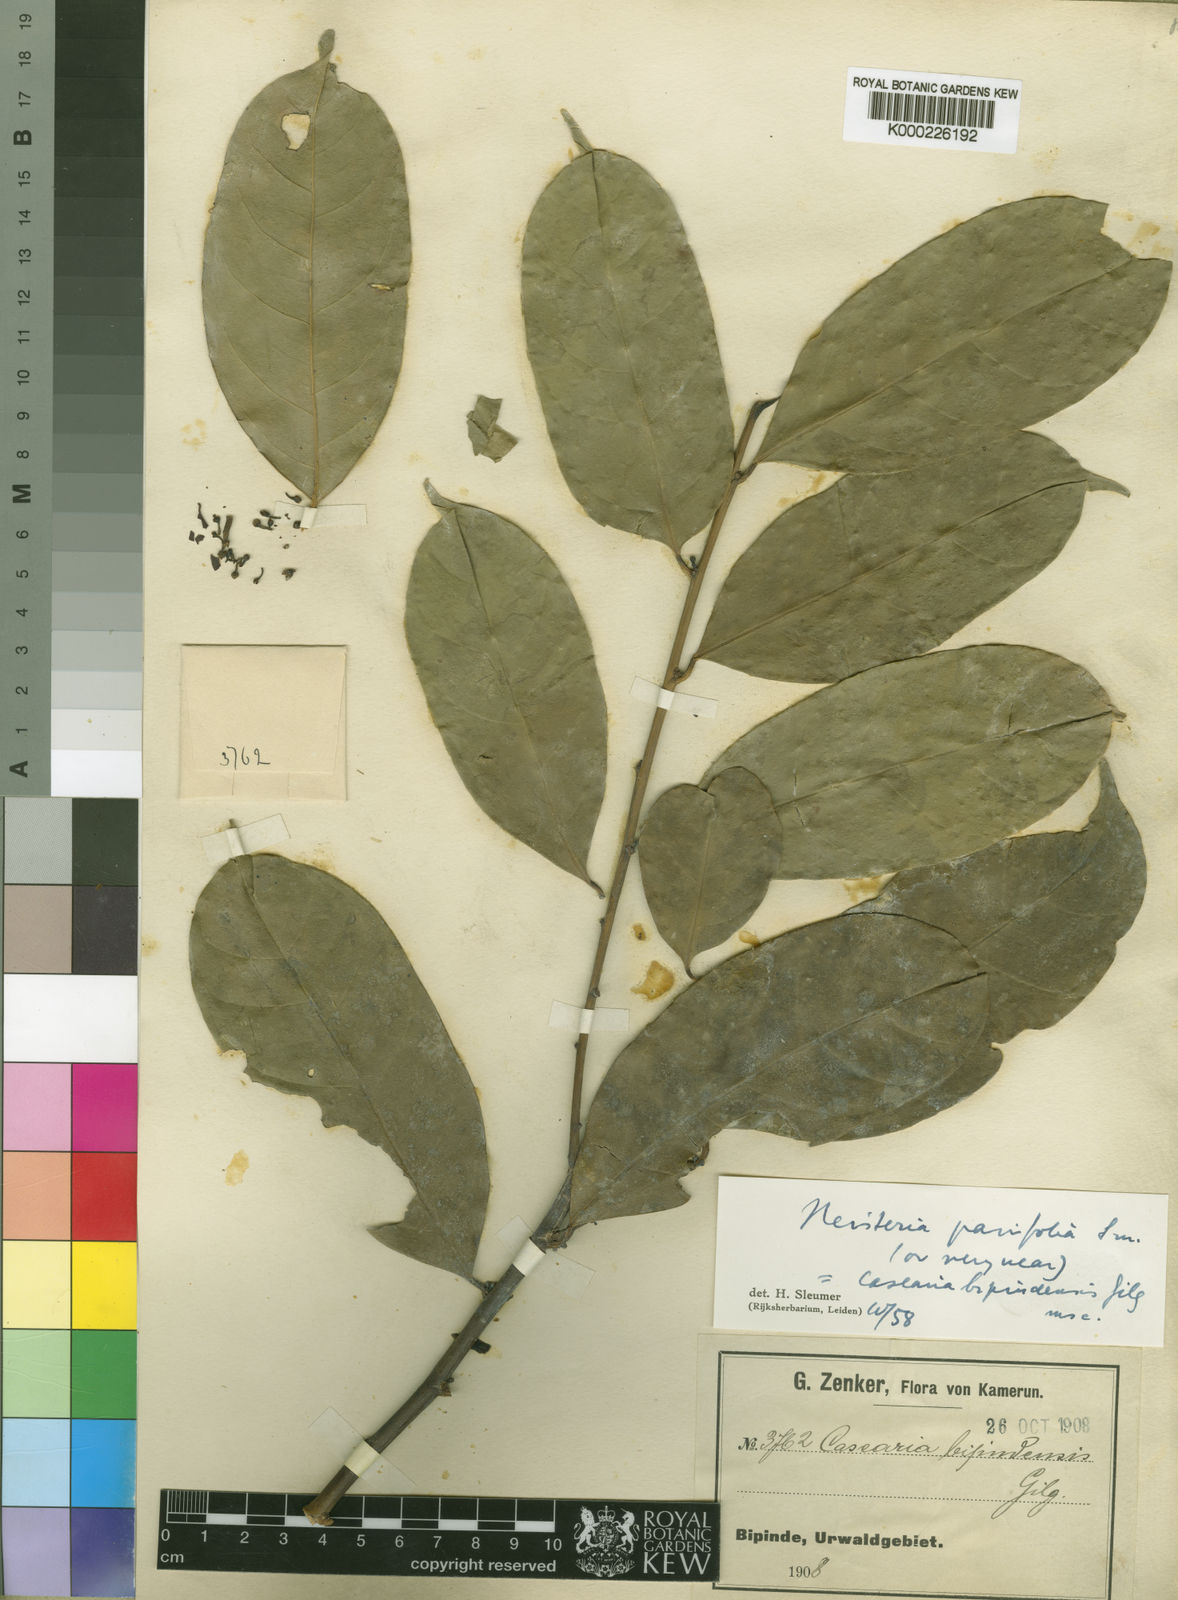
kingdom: Plantae
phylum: Tracheophyta
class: Magnoliopsida
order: Santalales
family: Erythropalaceae
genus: Heisteria
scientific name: Heisteria parvifolia
